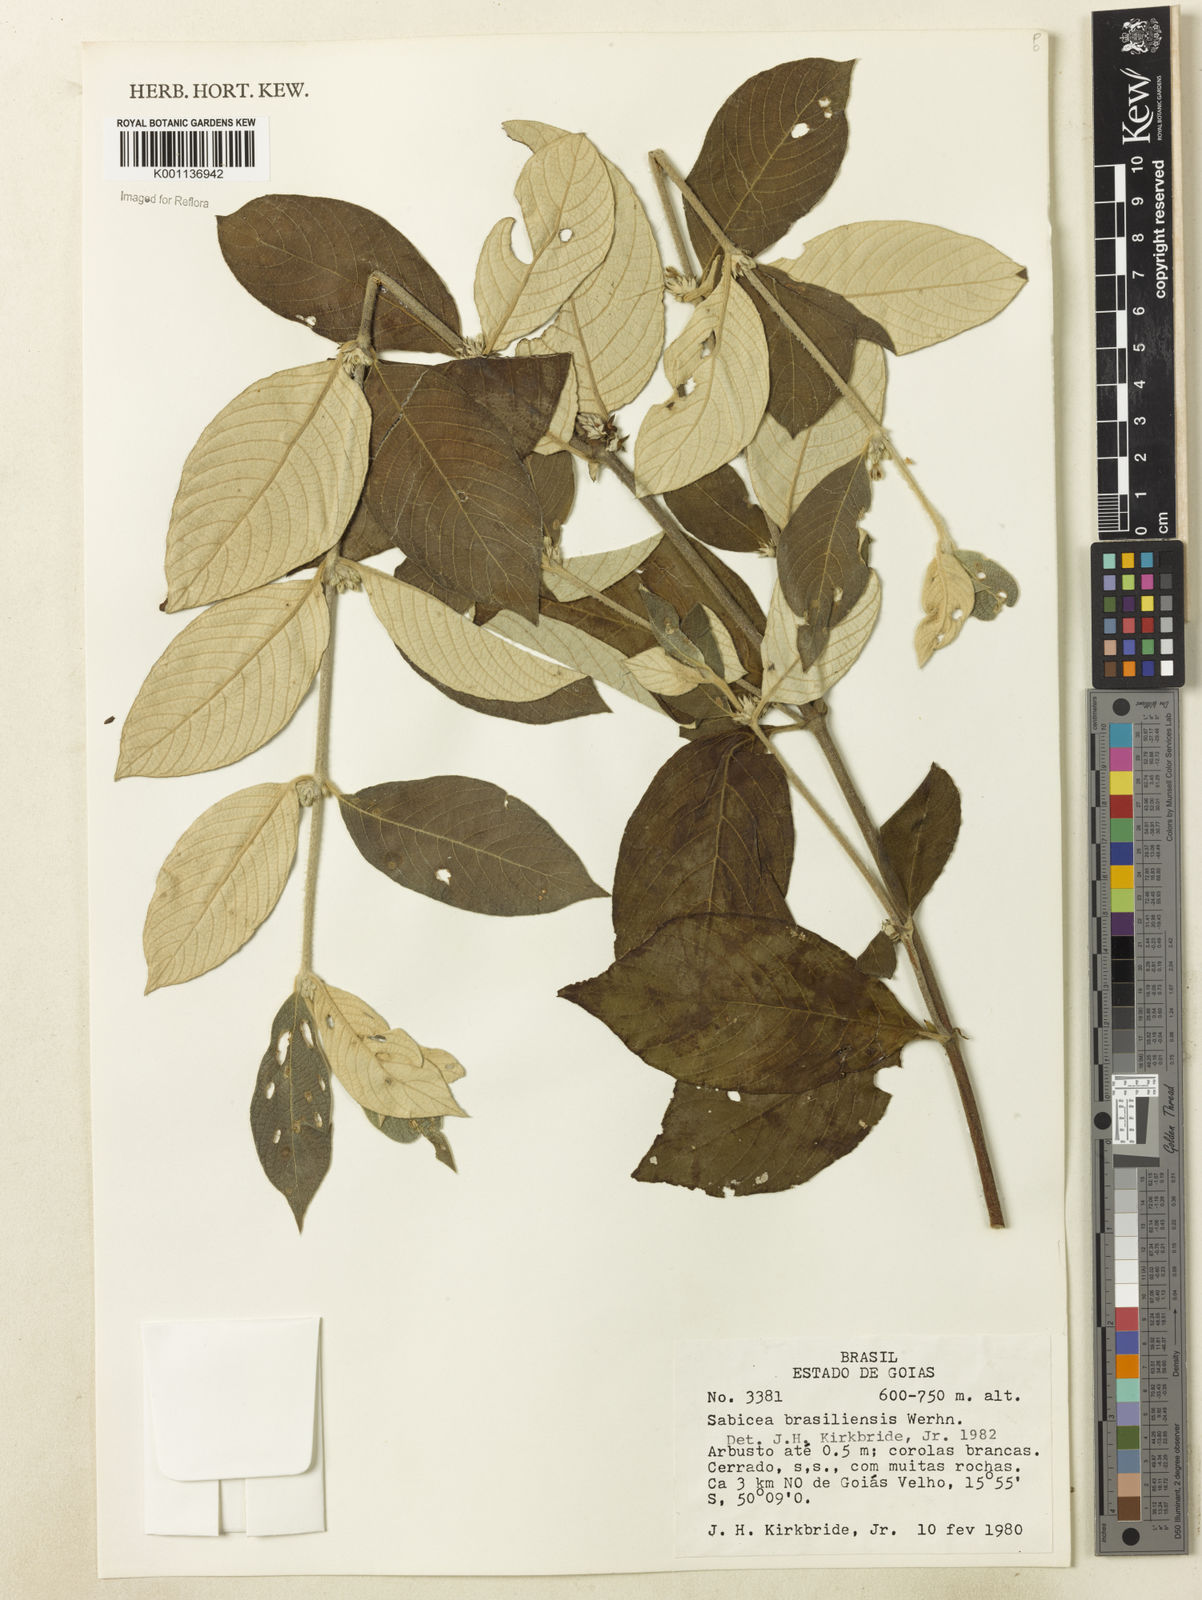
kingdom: Plantae
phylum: Tracheophyta
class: Magnoliopsida
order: Gentianales
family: Rubiaceae
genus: Sabicea
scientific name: Sabicea brasiliensis
